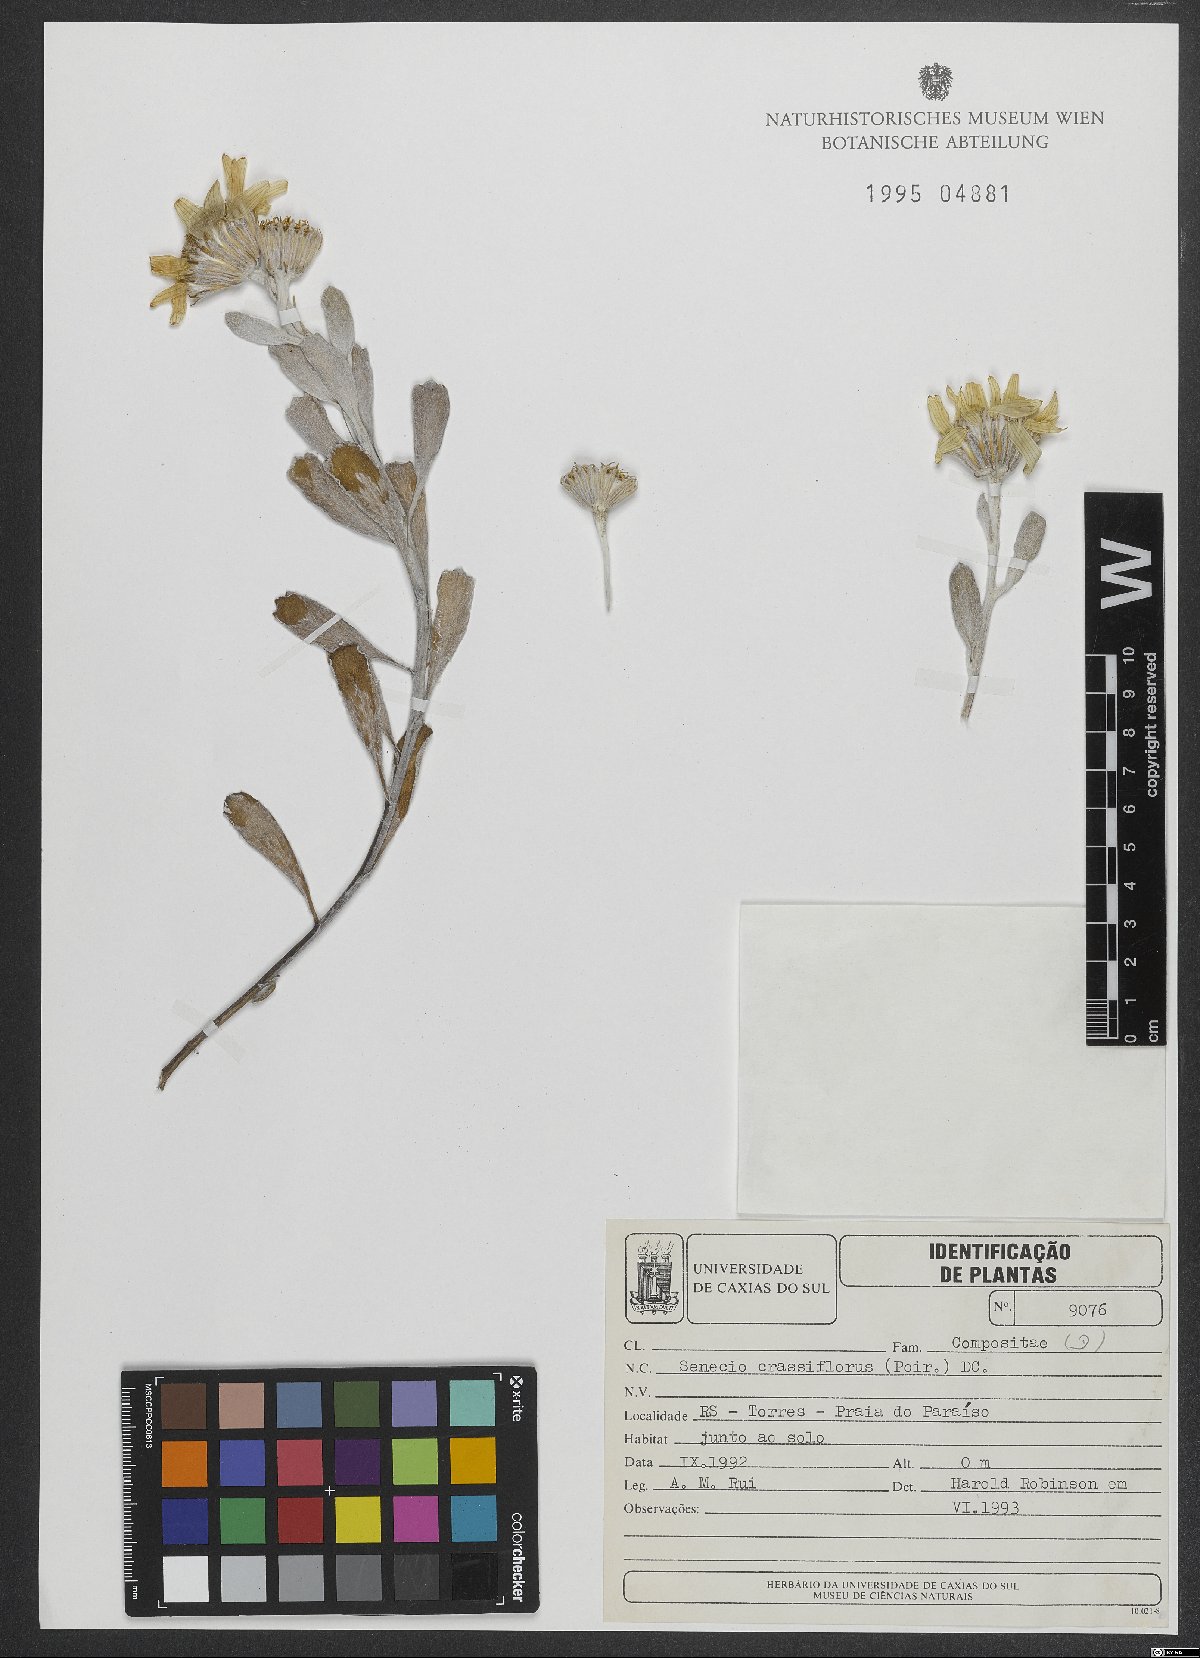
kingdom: Plantae
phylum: Tracheophyta
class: Magnoliopsida
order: Asterales
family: Asteraceae
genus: Senecio
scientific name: Senecio crassiflorus
